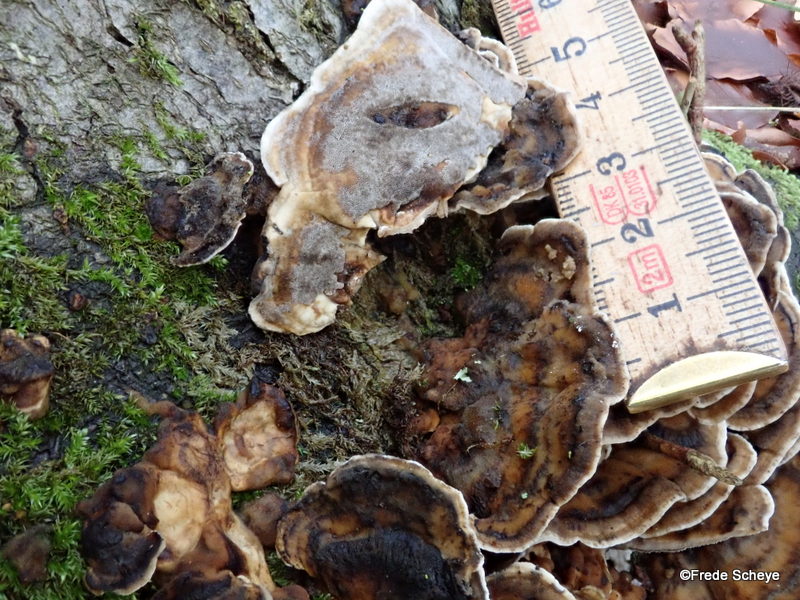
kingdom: Fungi
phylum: Basidiomycota
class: Agaricomycetes
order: Polyporales
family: Phanerochaetaceae
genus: Bjerkandera
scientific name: Bjerkandera adusta
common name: sveden sodporesvamp
